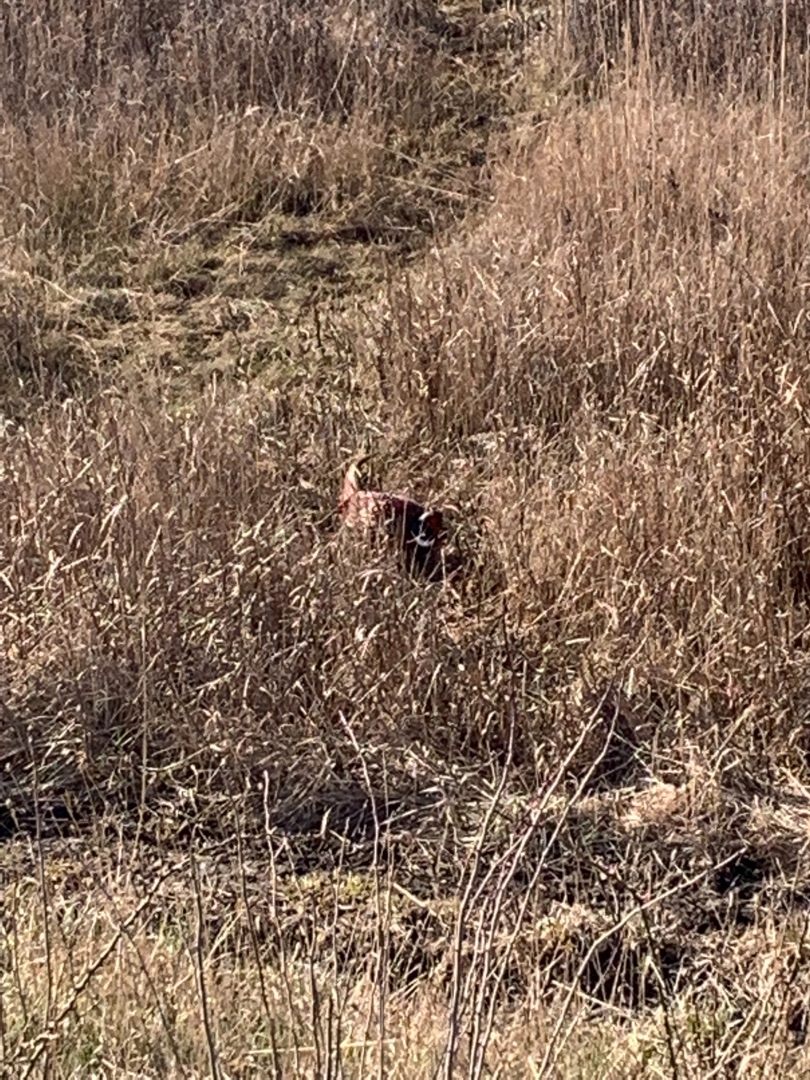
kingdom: Animalia
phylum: Chordata
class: Aves
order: Galliformes
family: Phasianidae
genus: Phasianus
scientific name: Phasianus colchicus
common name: Fasan
